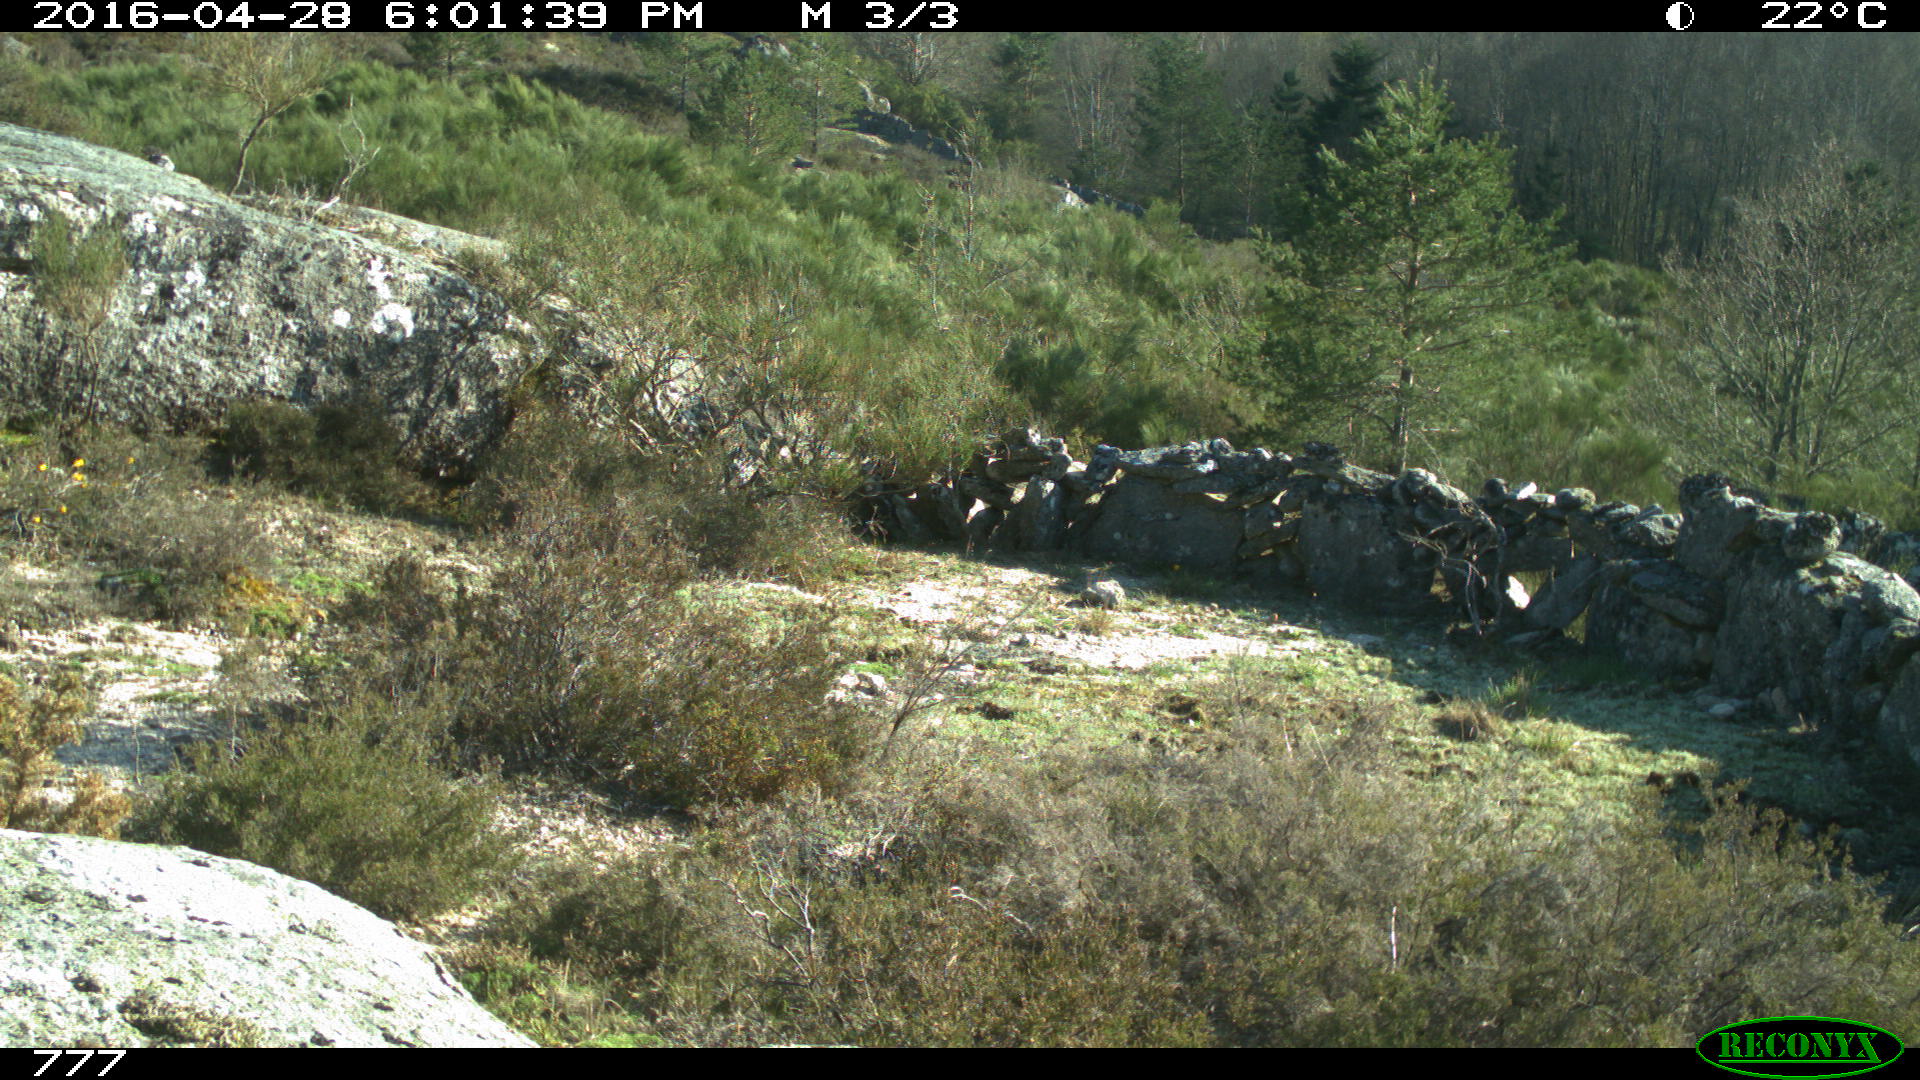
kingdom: Animalia
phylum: Chordata
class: Mammalia
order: Carnivora
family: Canidae
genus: Canis
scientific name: Canis lupus
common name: Gray wolf
